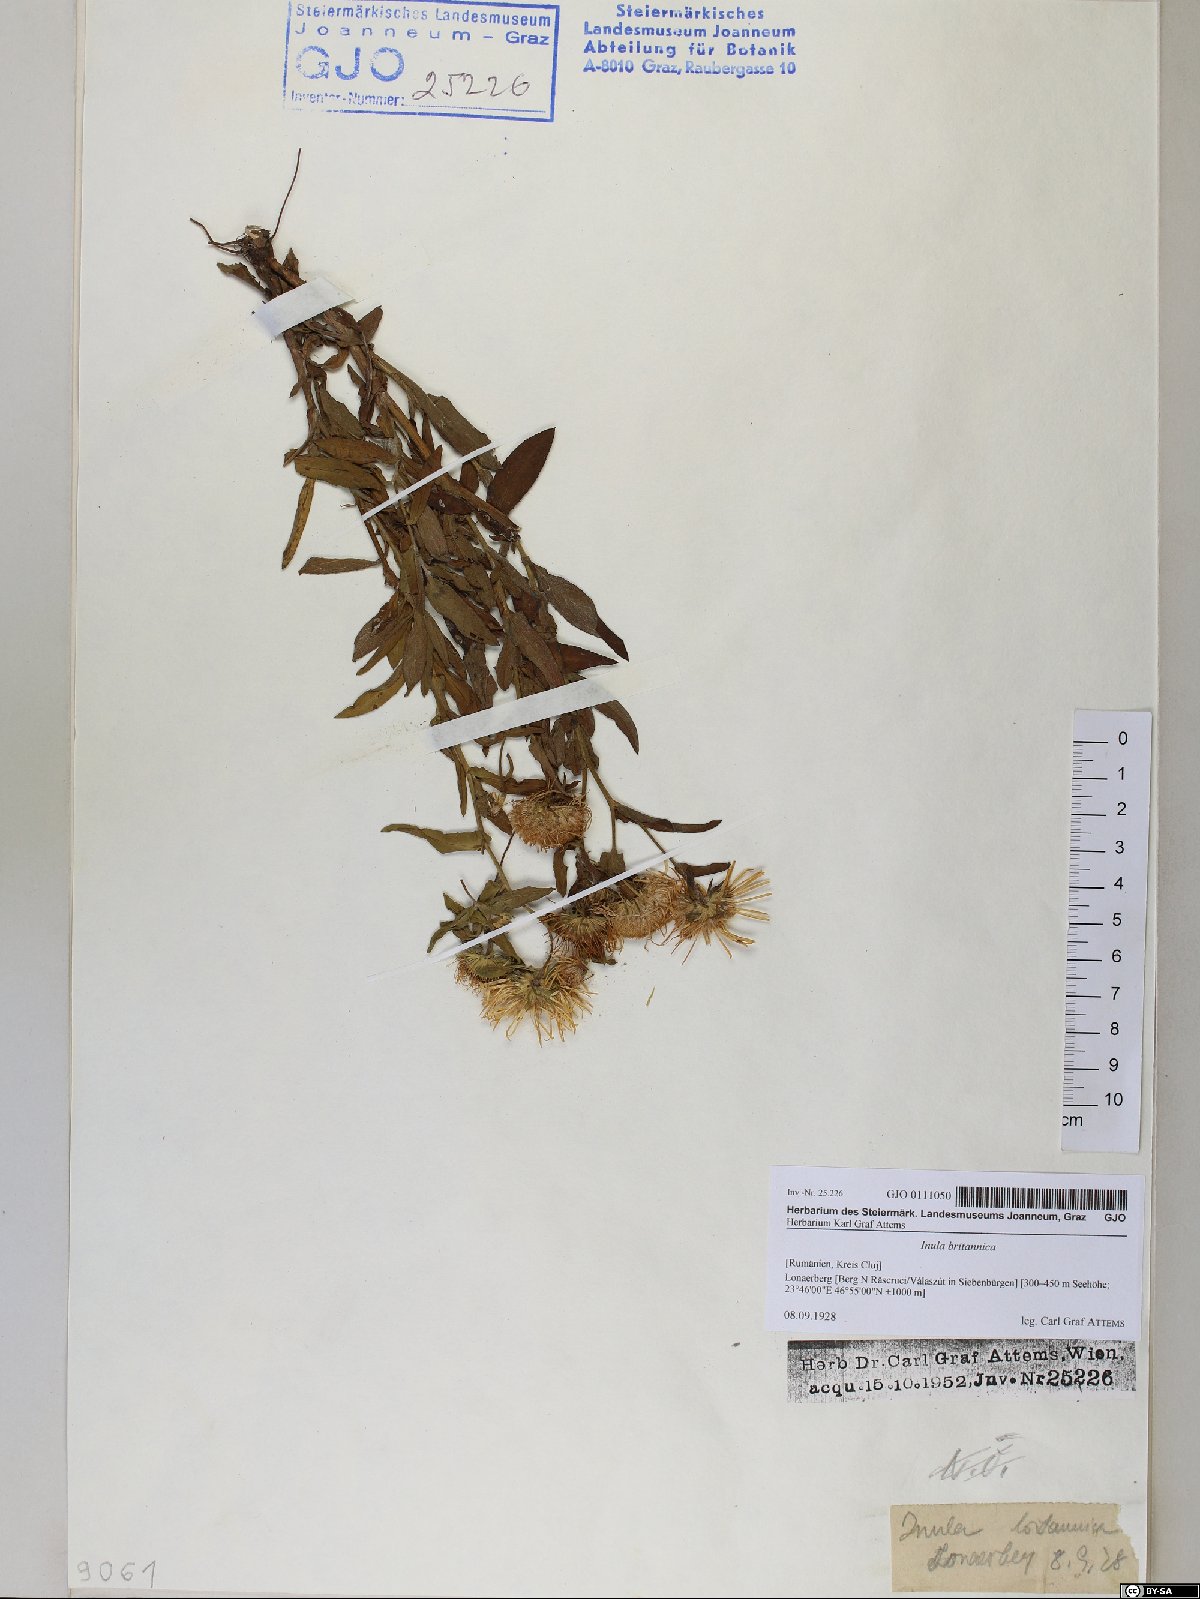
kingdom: Plantae
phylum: Tracheophyta
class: Magnoliopsida
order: Asterales
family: Asteraceae
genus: Pentanema
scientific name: Pentanema britannicum
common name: British elecampane
